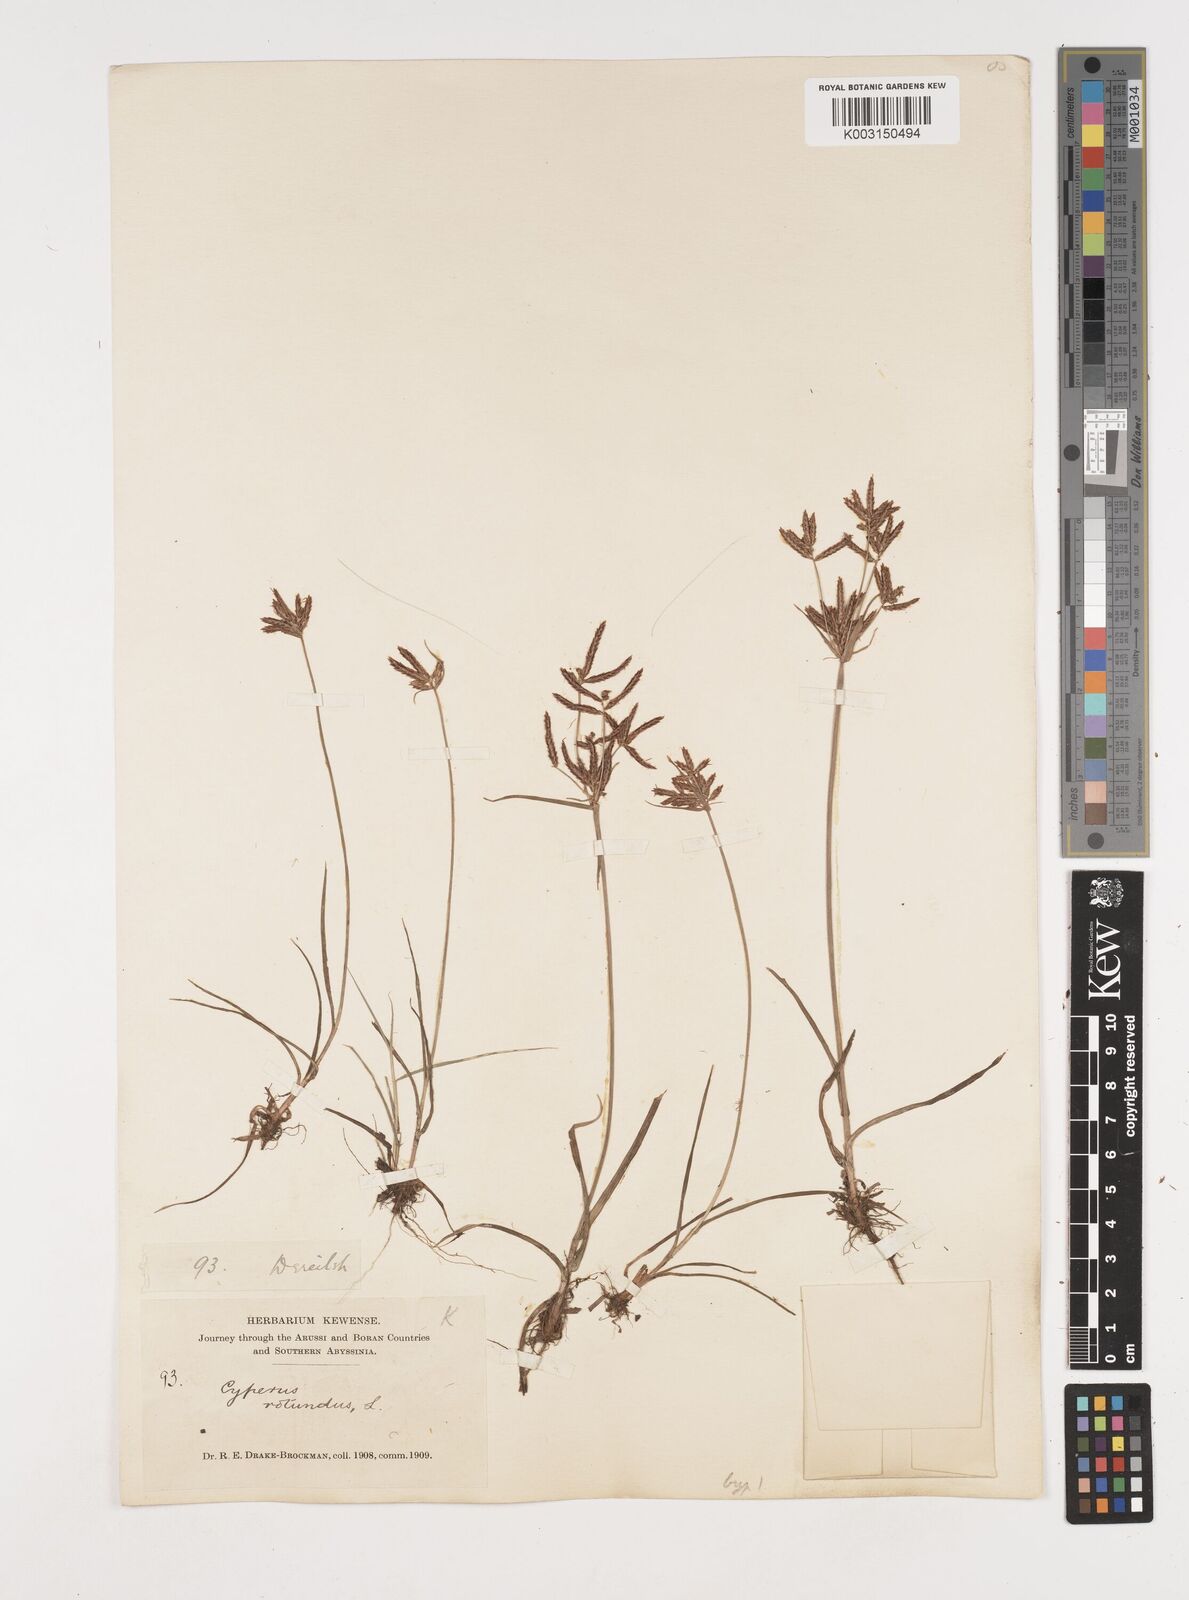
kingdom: Plantae
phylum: Tracheophyta
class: Liliopsida
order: Poales
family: Cyperaceae
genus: Cyperus
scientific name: Cyperus rotundus
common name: Nutgrass
